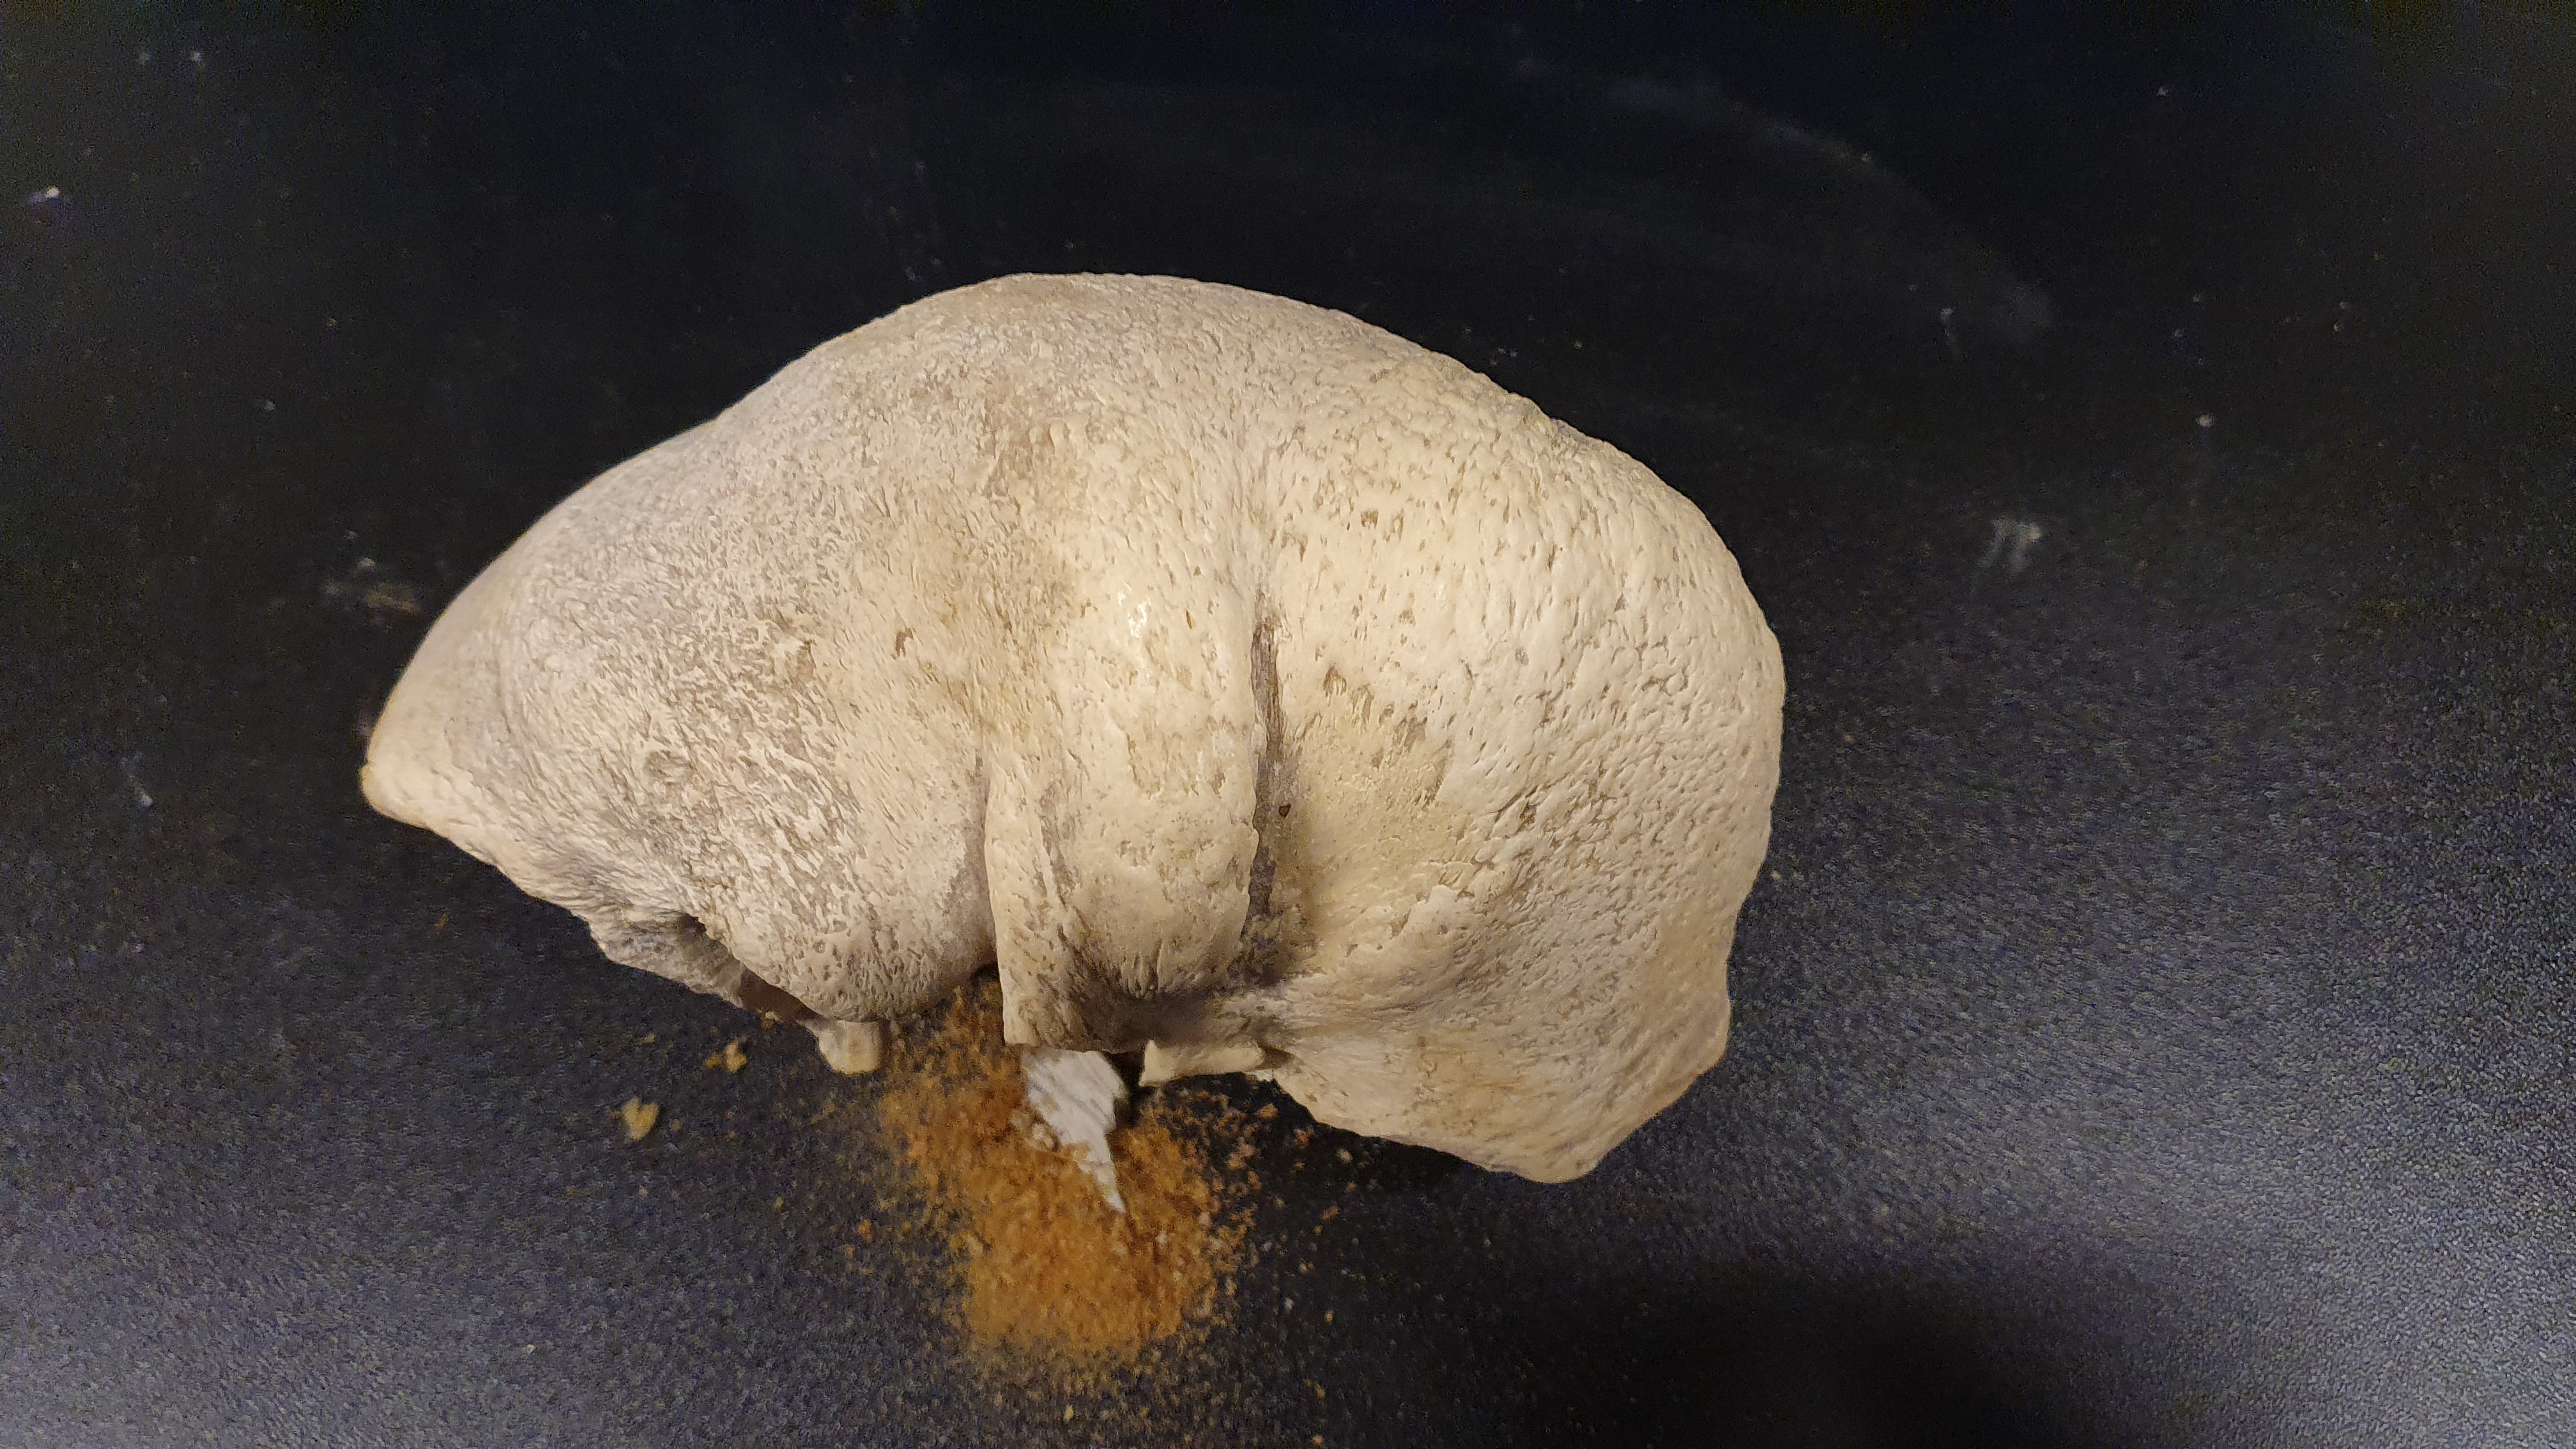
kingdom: Animalia
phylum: Chordata
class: Mammalia
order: Cetacea
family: Balaenopteridae
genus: Balaenoptera
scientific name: Balaenoptera
